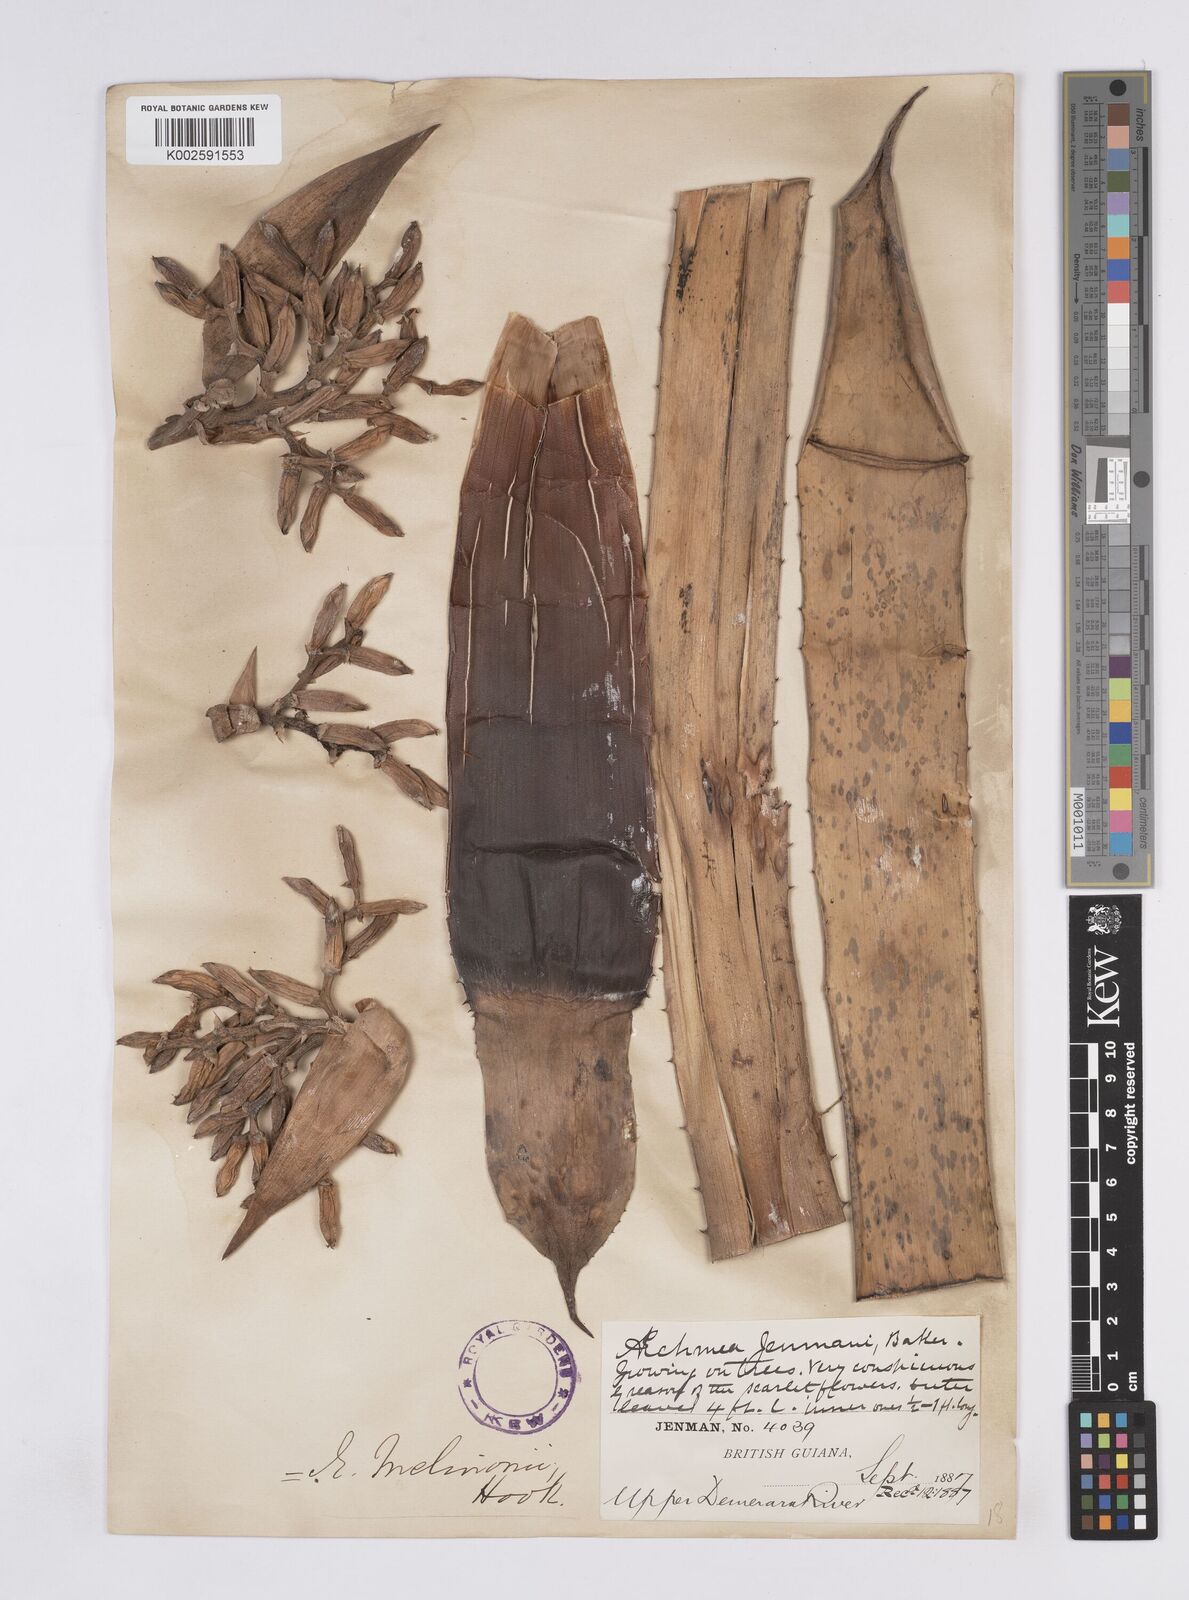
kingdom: Plantae
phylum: Tracheophyta
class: Liliopsida
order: Poales
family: Bromeliaceae
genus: Aechmea
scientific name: Aechmea melinonii
